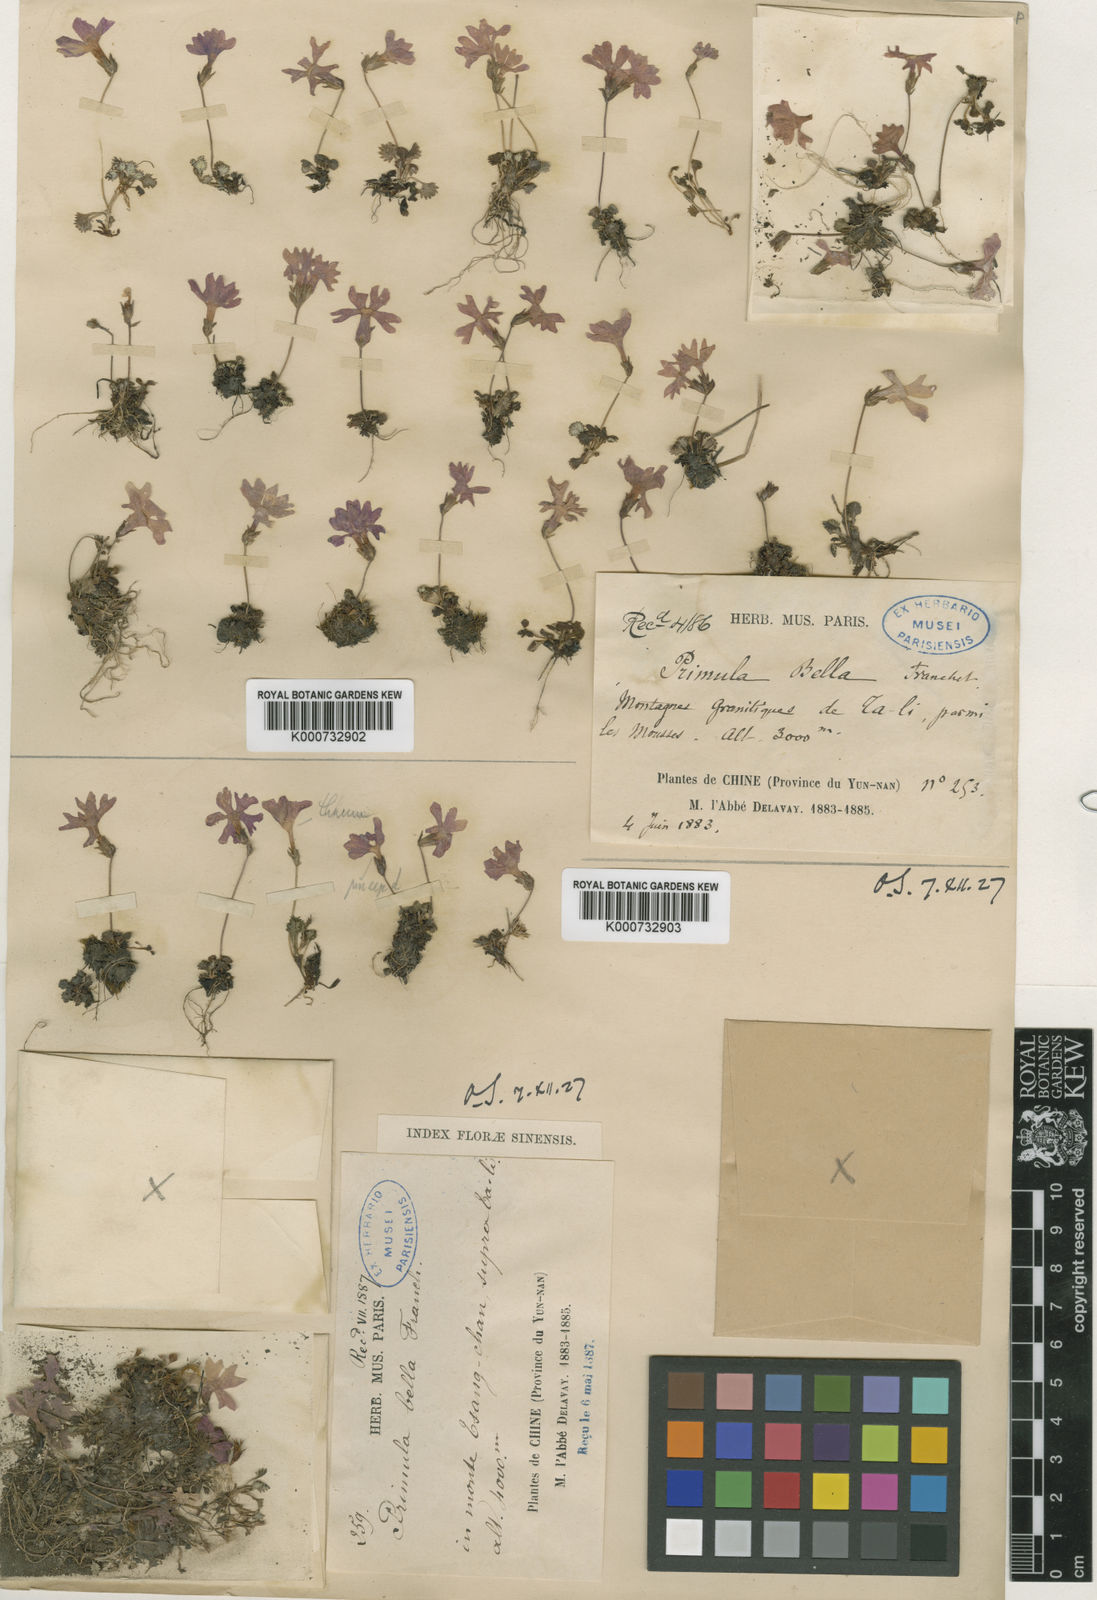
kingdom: Plantae
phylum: Tracheophyta
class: Magnoliopsida
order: Ericales
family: Primulaceae
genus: Primula
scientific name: Primula bella
